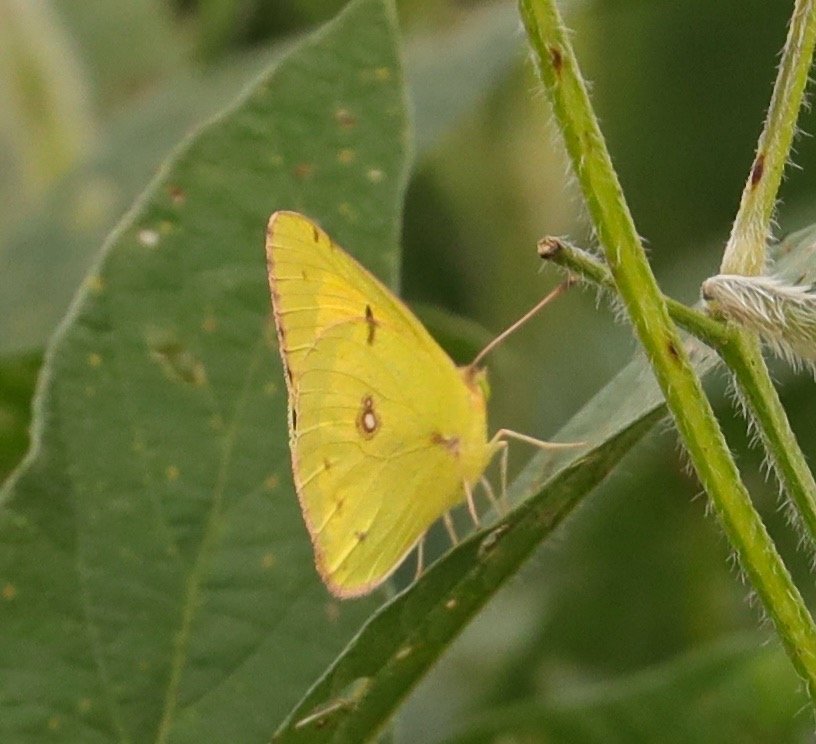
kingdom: Animalia
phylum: Arthropoda
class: Insecta
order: Lepidoptera
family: Pieridae
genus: Colias
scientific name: Colias eurytheme
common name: Orange Sulphur
